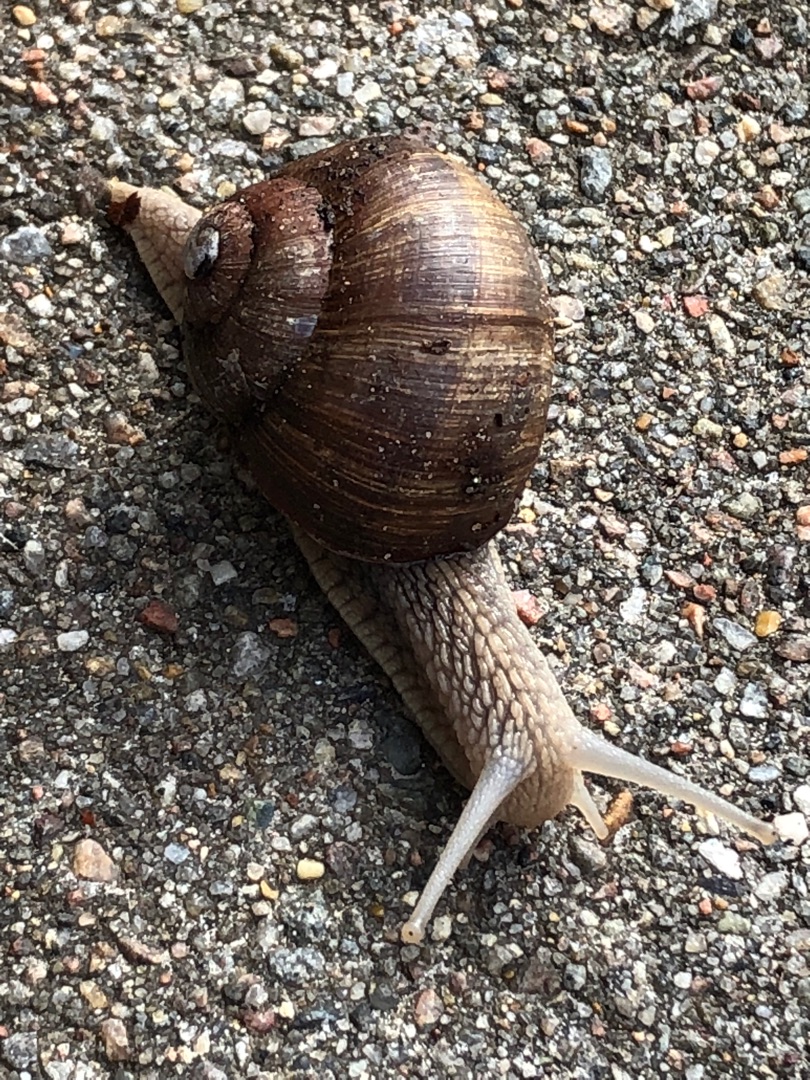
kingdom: Animalia
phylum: Mollusca
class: Gastropoda
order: Stylommatophora
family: Helicidae
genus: Helix
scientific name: Helix pomatia
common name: Vinbjergsnegl
